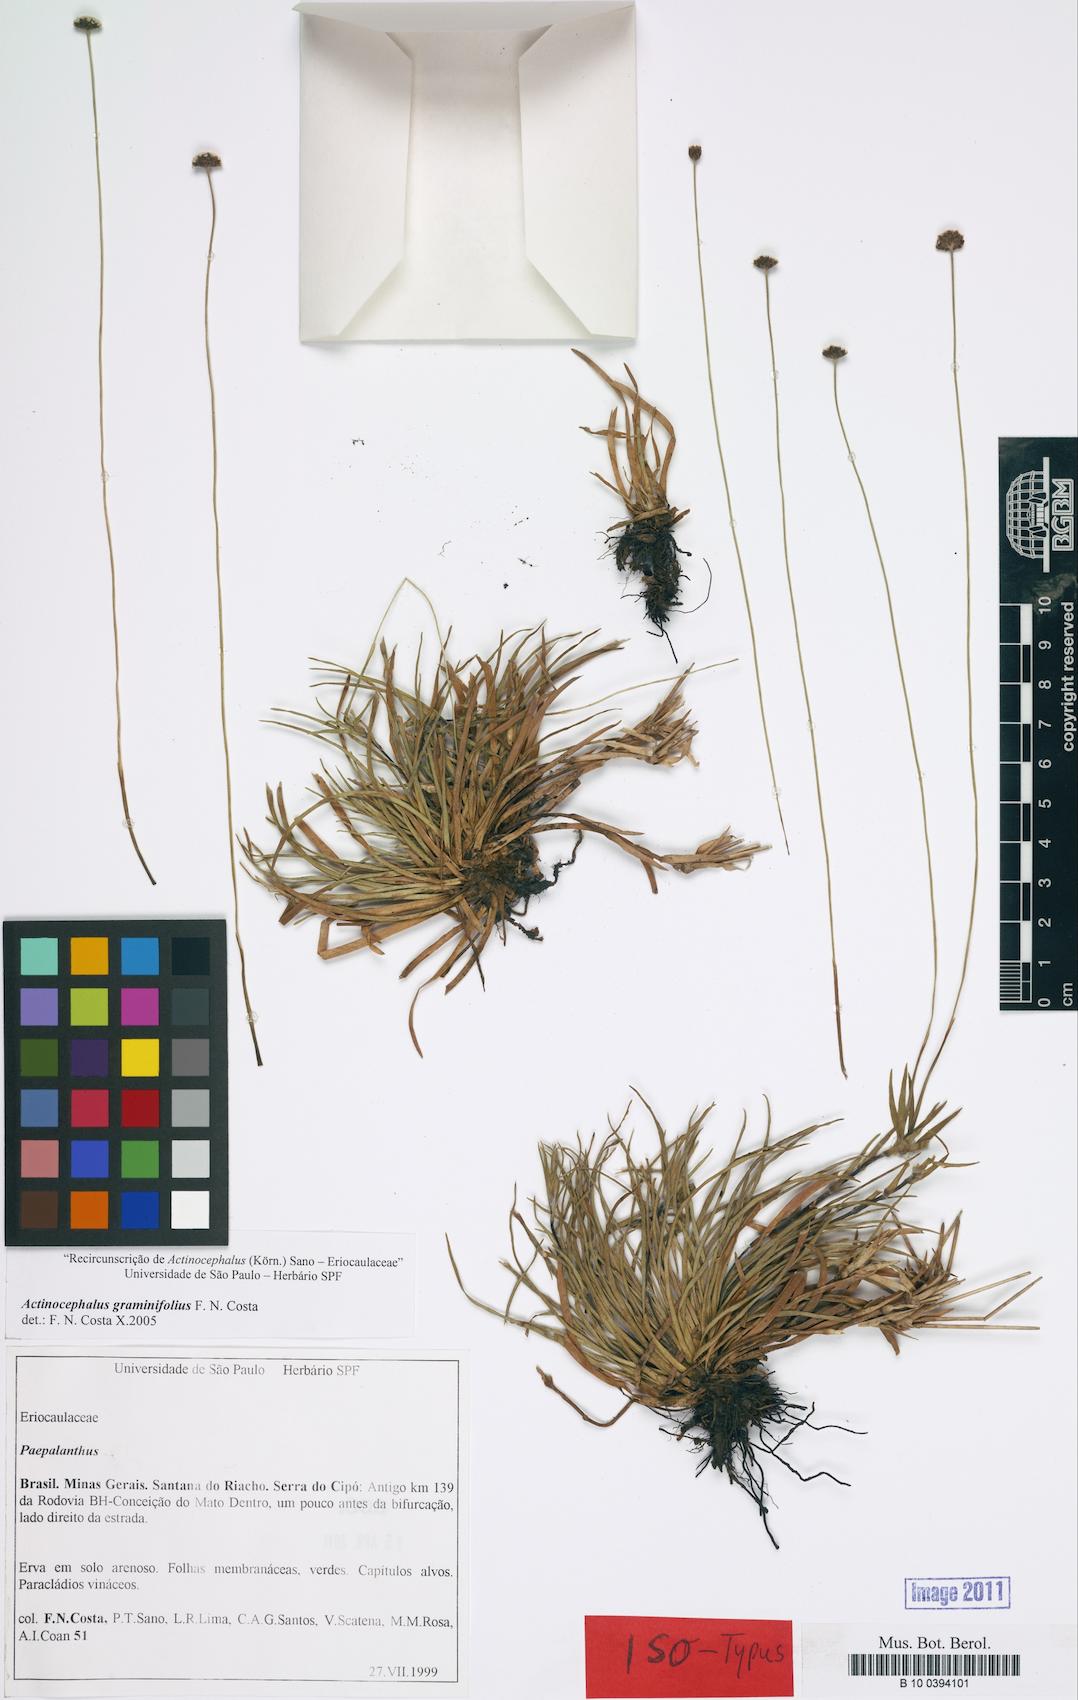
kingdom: Plantae
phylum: Tracheophyta
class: Liliopsida
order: Poales
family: Eriocaulaceae
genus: Paepalanthus
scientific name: Paepalanthus graminifolius
